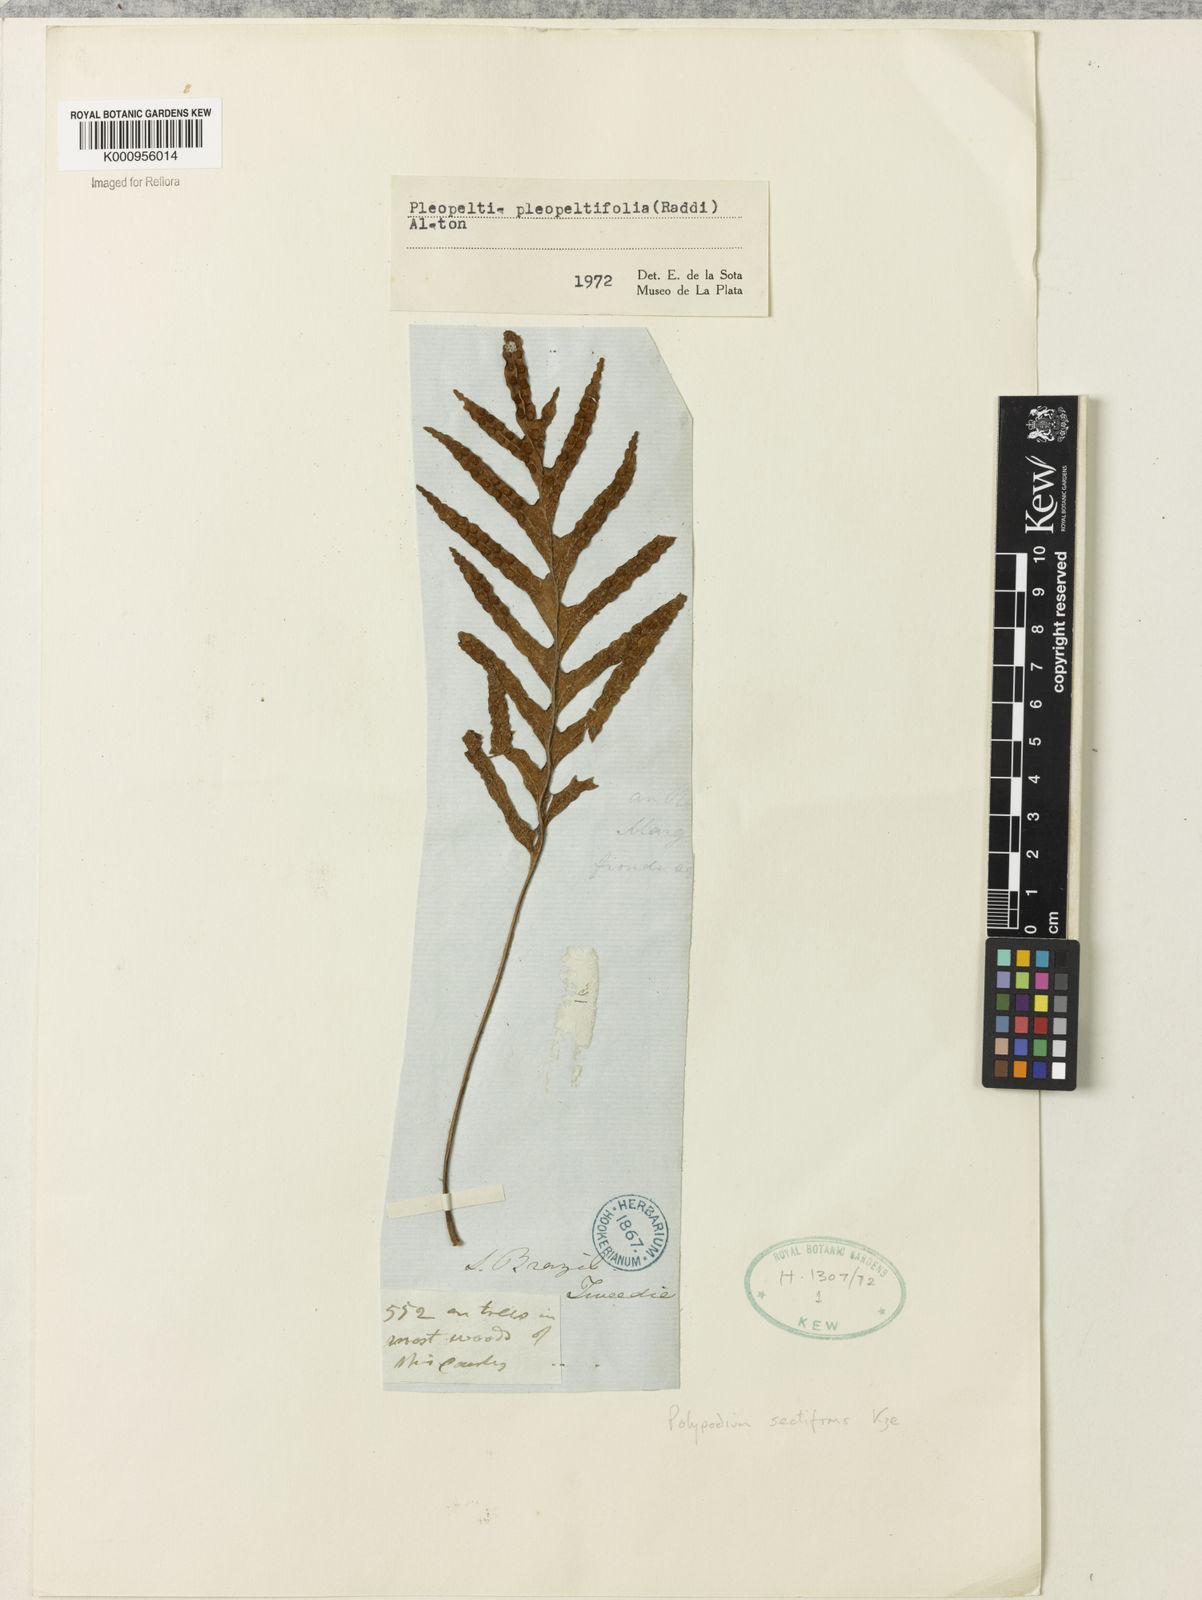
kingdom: Plantae
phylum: Tracheophyta
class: Polypodiopsida
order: Polypodiales
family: Polypodiaceae
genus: Pleopeltis
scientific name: Pleopeltis angusta
